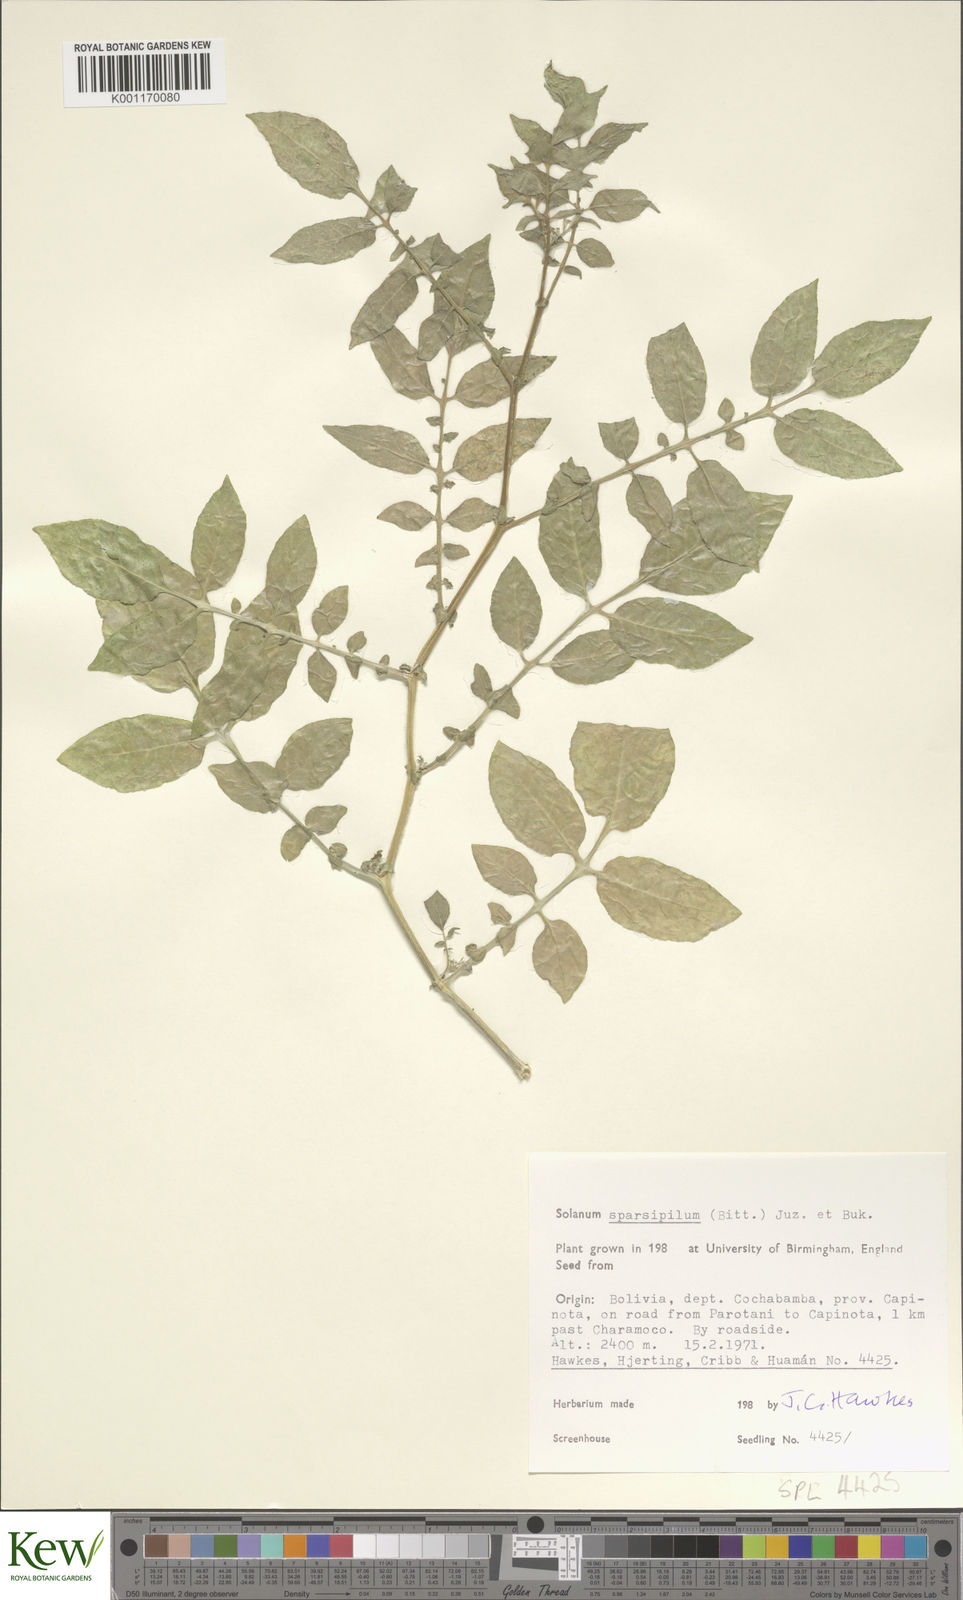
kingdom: Plantae
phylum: Tracheophyta
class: Magnoliopsida
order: Solanales
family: Solanaceae
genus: Solanum
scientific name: Solanum brevicaule
